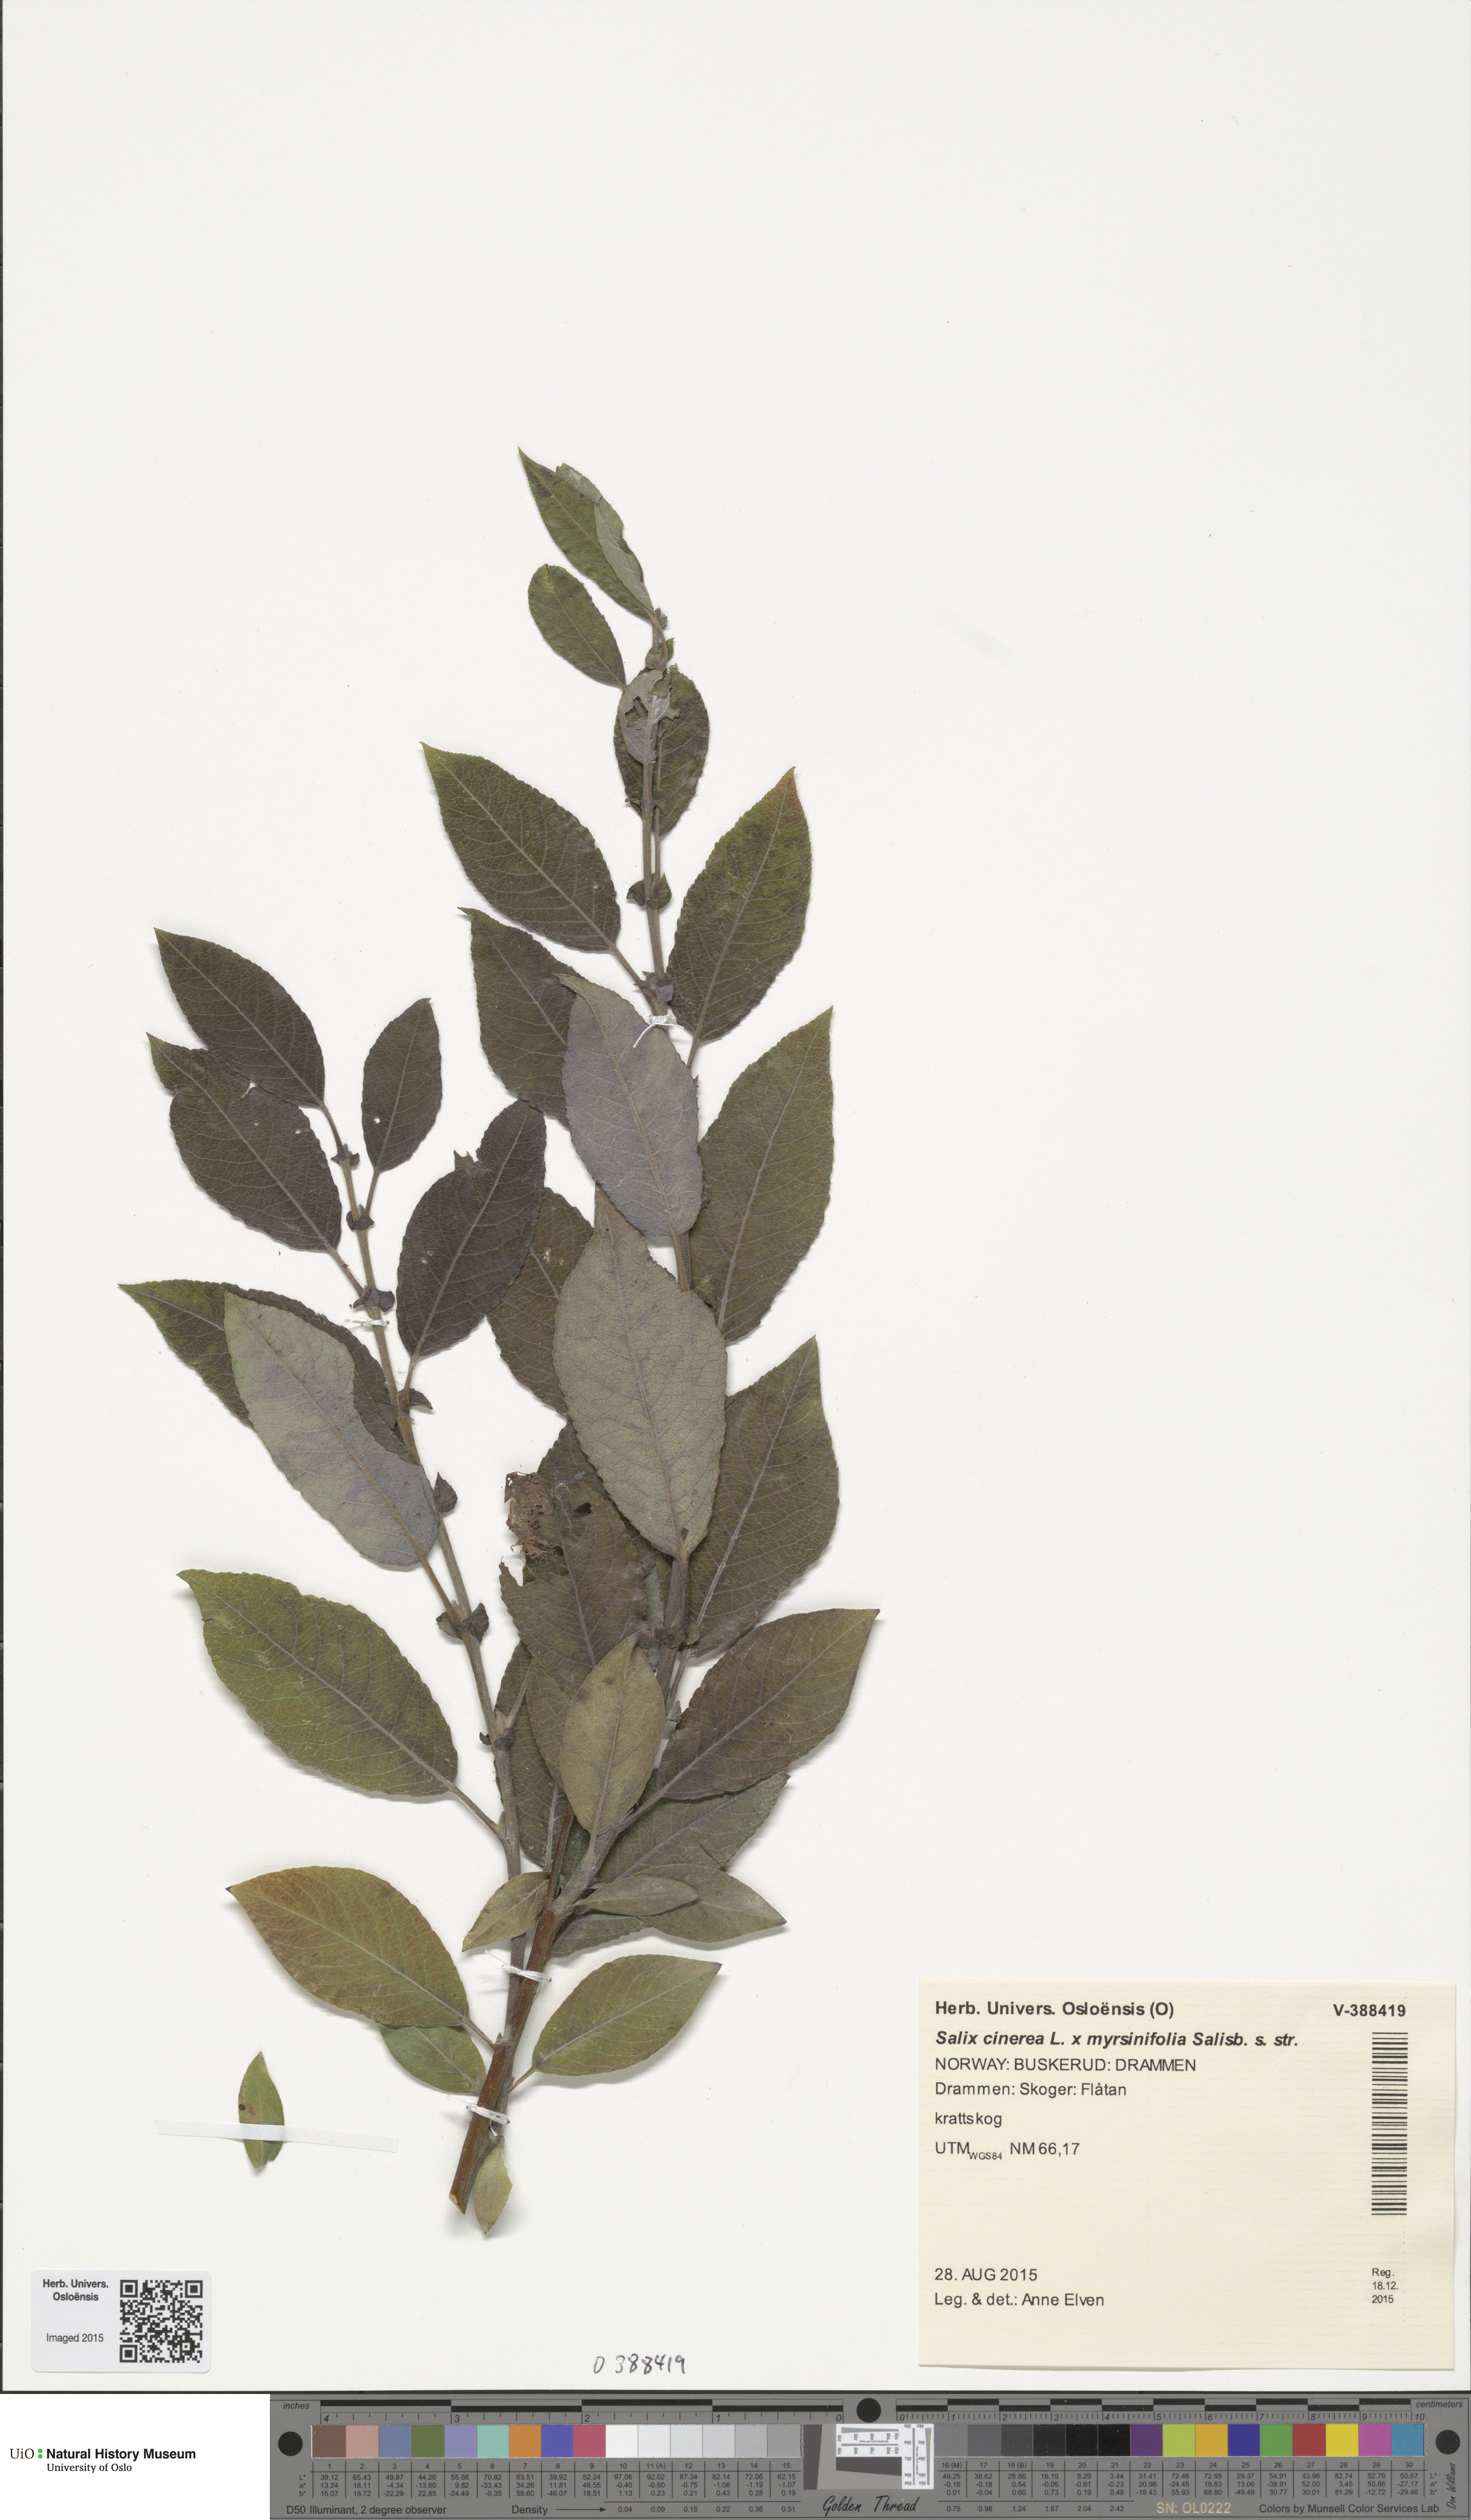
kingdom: Plantae
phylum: Tracheophyta
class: Magnoliopsida
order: Malpighiales
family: Salicaceae
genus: Salix
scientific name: Salix
